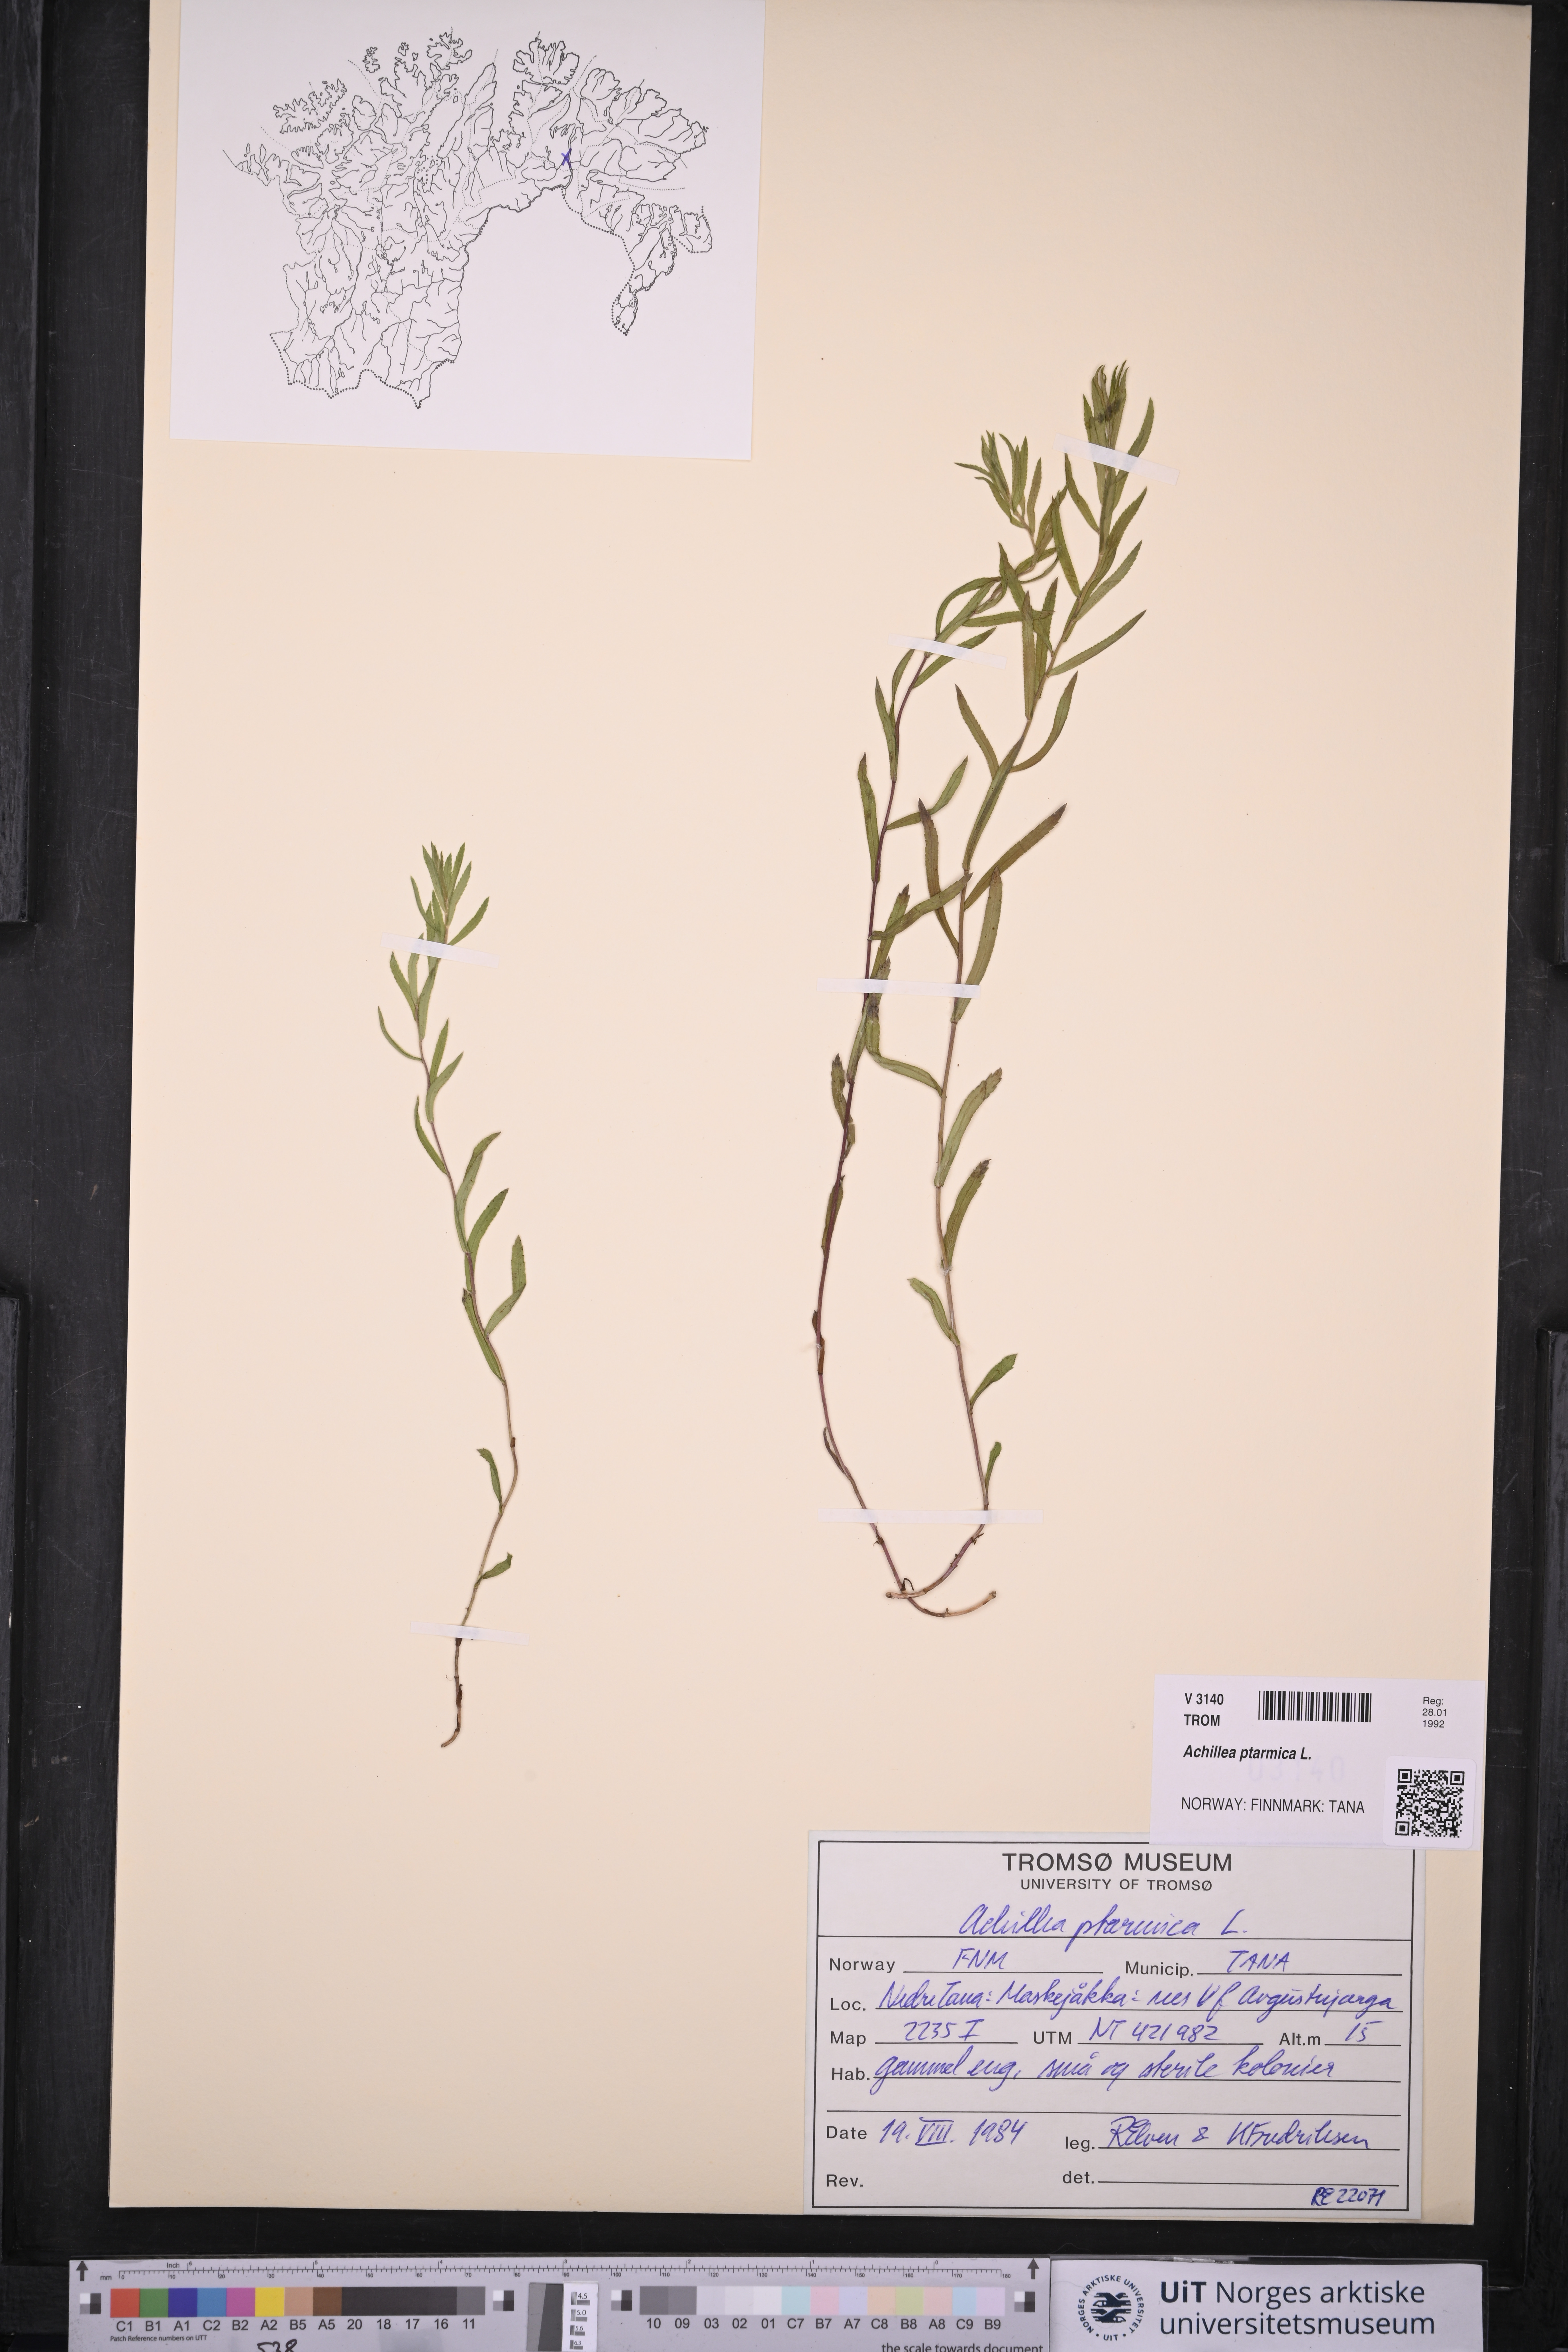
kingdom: Plantae
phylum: Tracheophyta
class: Magnoliopsida
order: Asterales
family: Asteraceae
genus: Achillea
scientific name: Achillea ptarmica
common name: Sneezeweed
